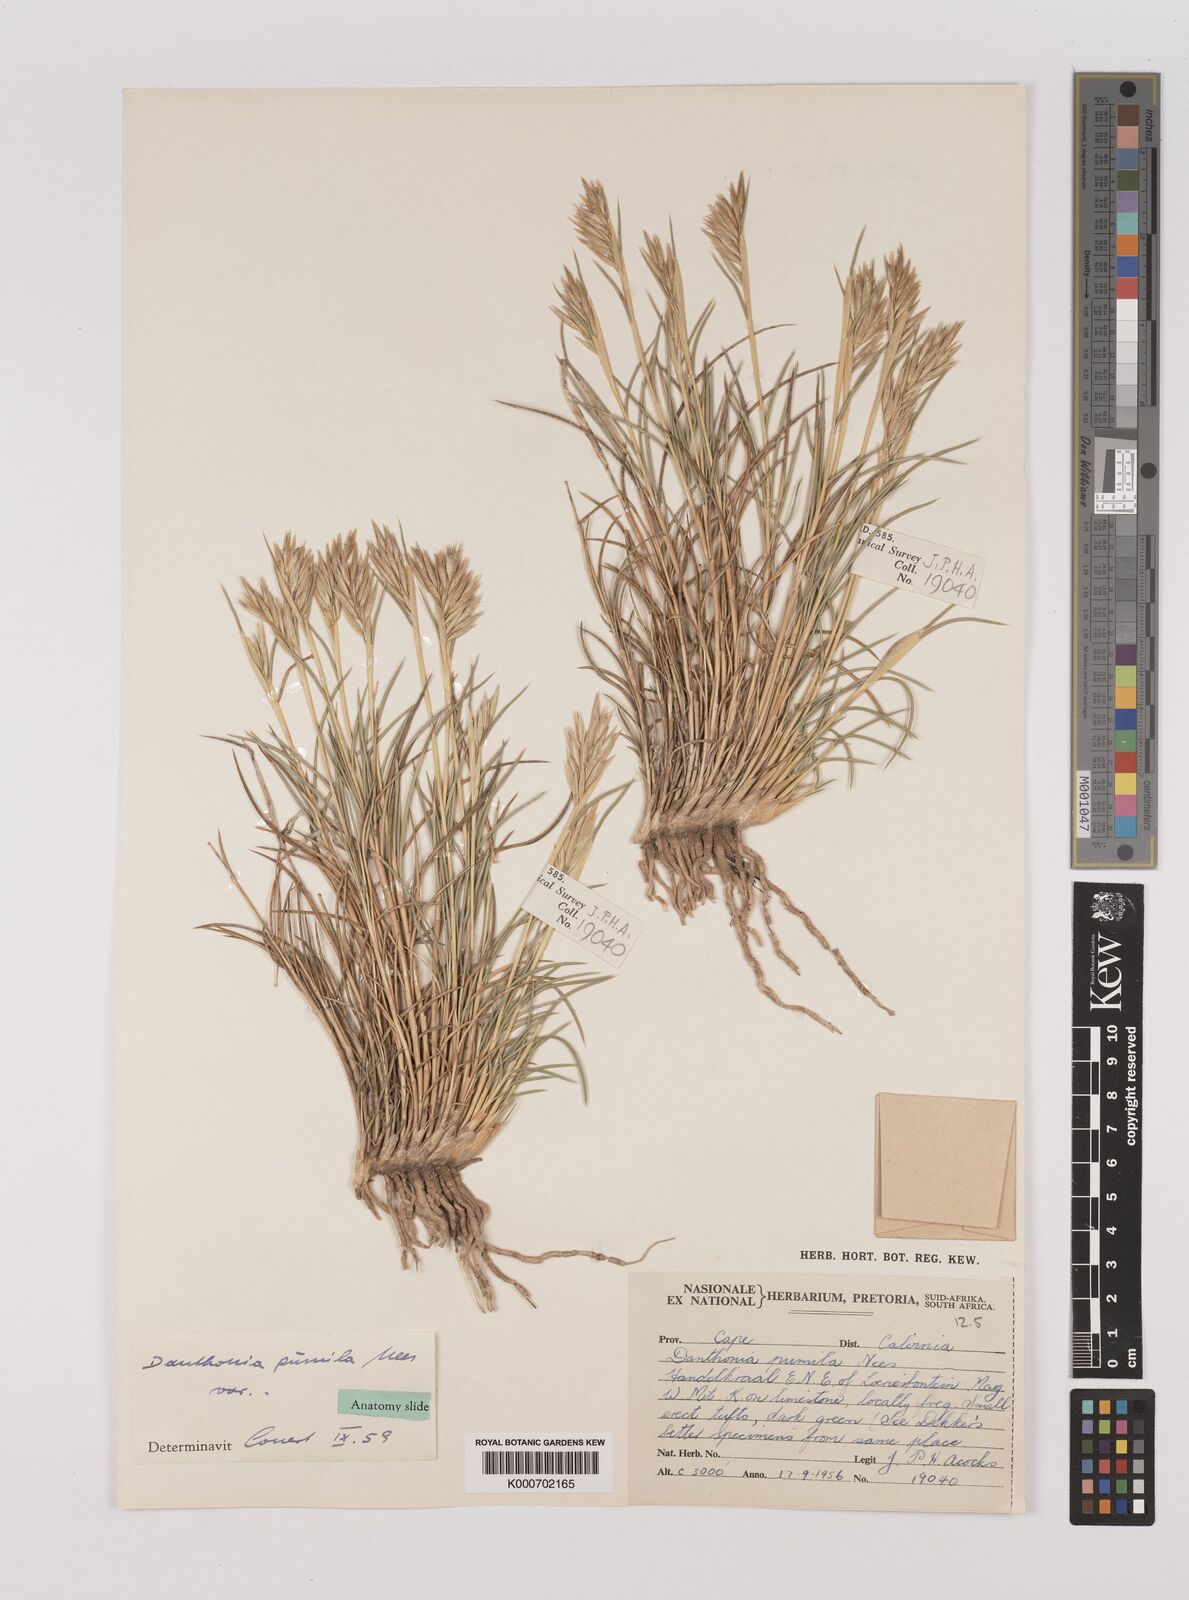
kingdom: Plantae
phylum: Tracheophyta
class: Liliopsida
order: Poales
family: Poaceae
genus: Danthonia
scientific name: Danthonia decumbens
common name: Common heathgrass
